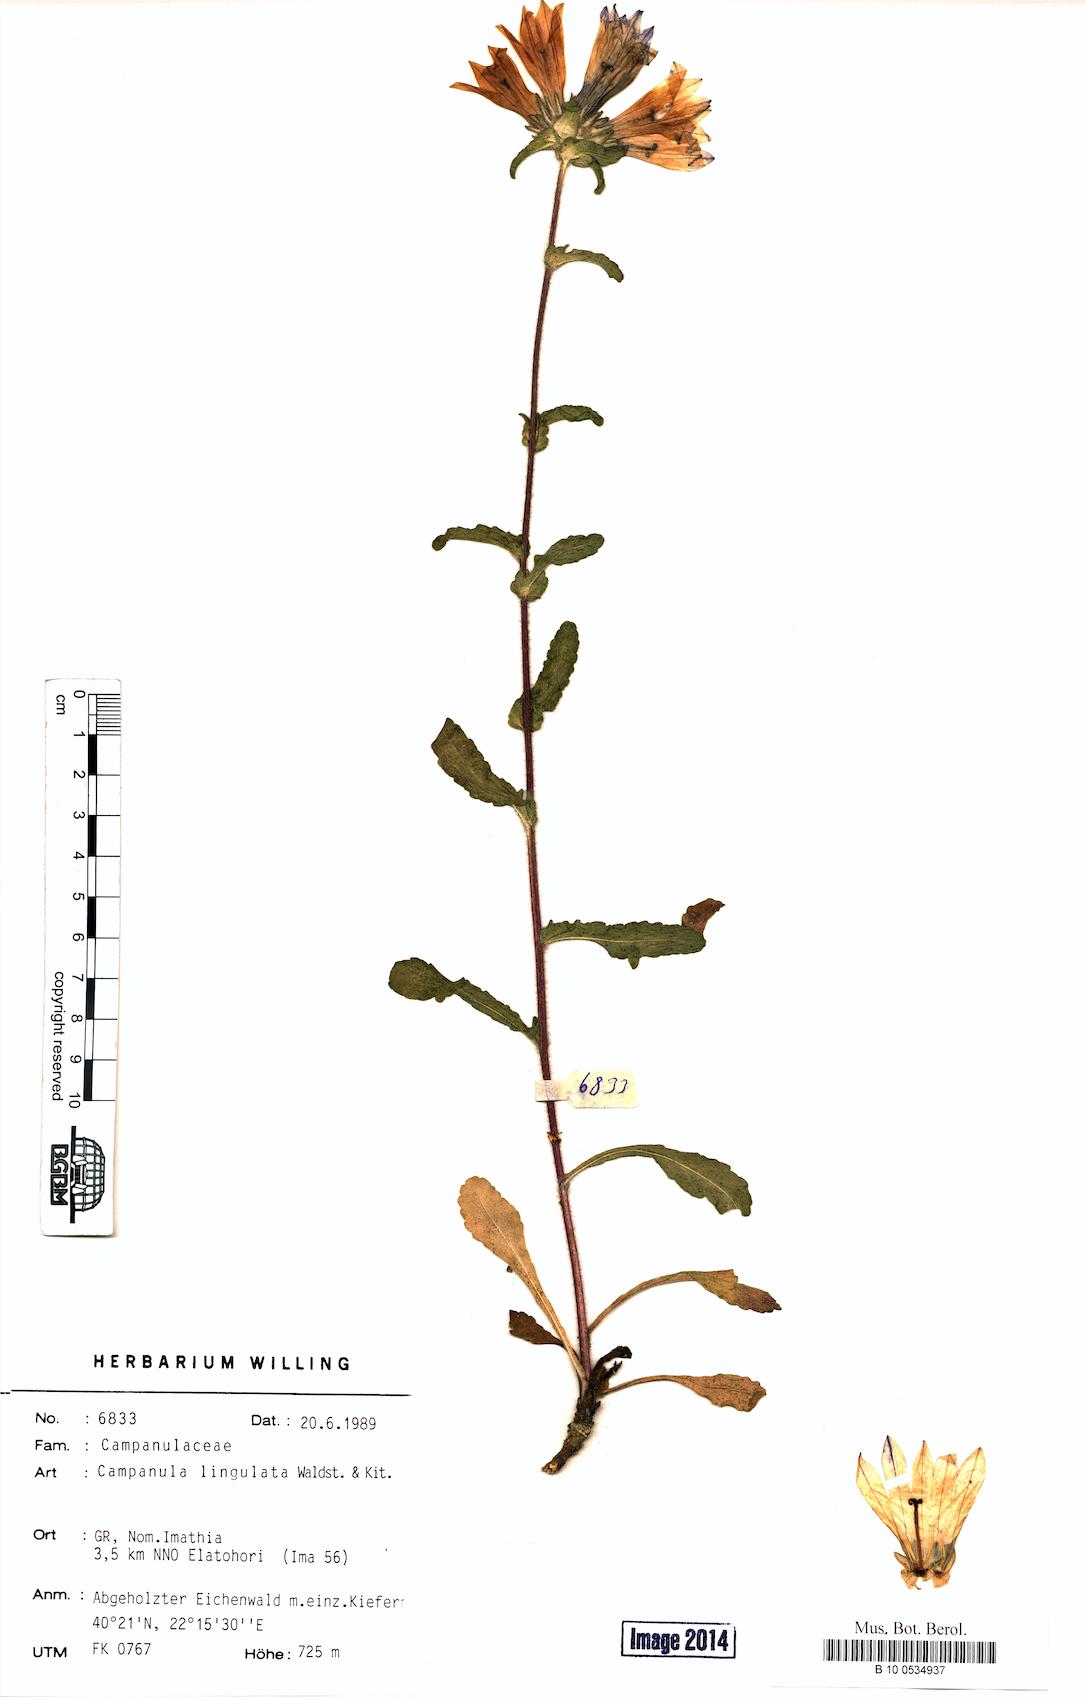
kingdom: Plantae
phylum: Tracheophyta
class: Magnoliopsida
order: Asterales
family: Campanulaceae
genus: Campanula
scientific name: Campanula lingulata
